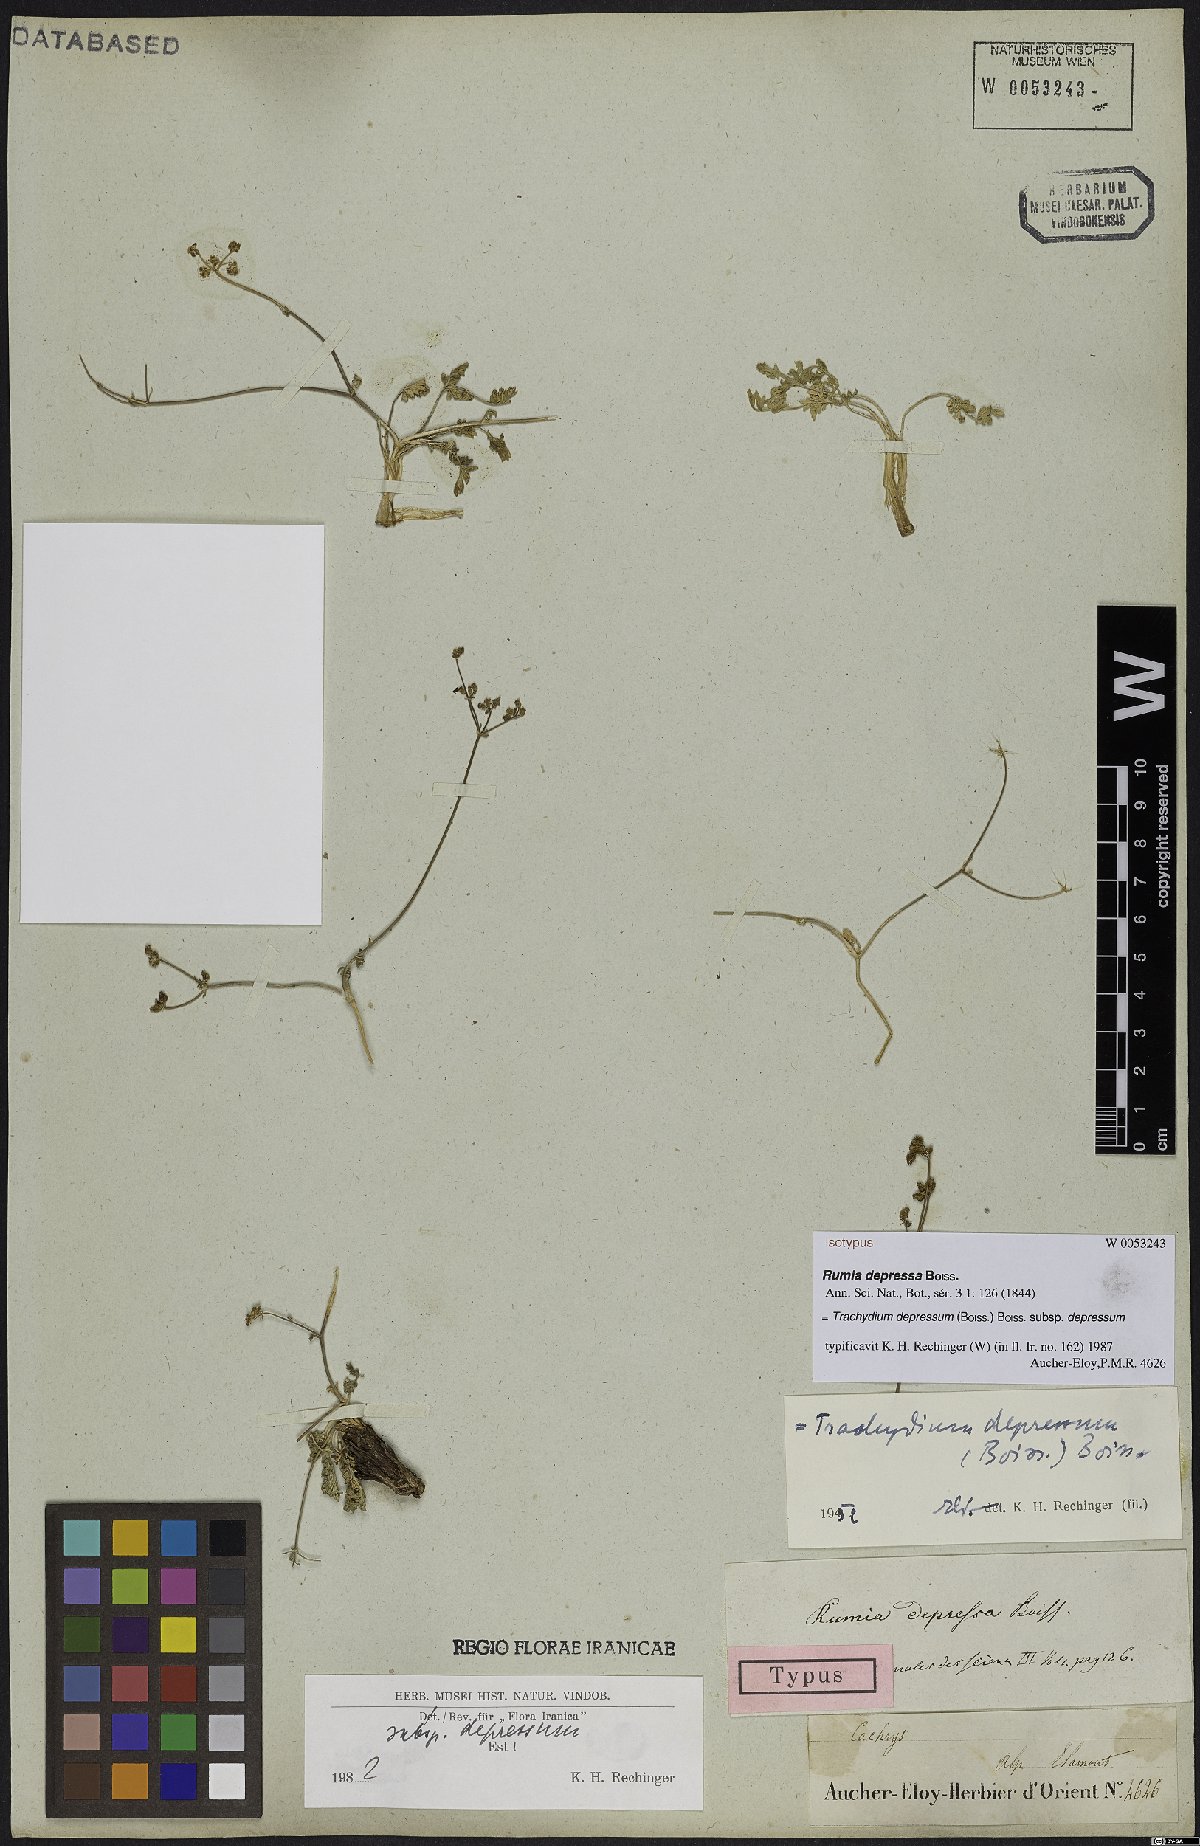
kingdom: Plantae
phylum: Tracheophyta
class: Magnoliopsida
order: Apiales
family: Apiaceae
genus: Pseudotrachydium
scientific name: Pseudotrachydium depressum
